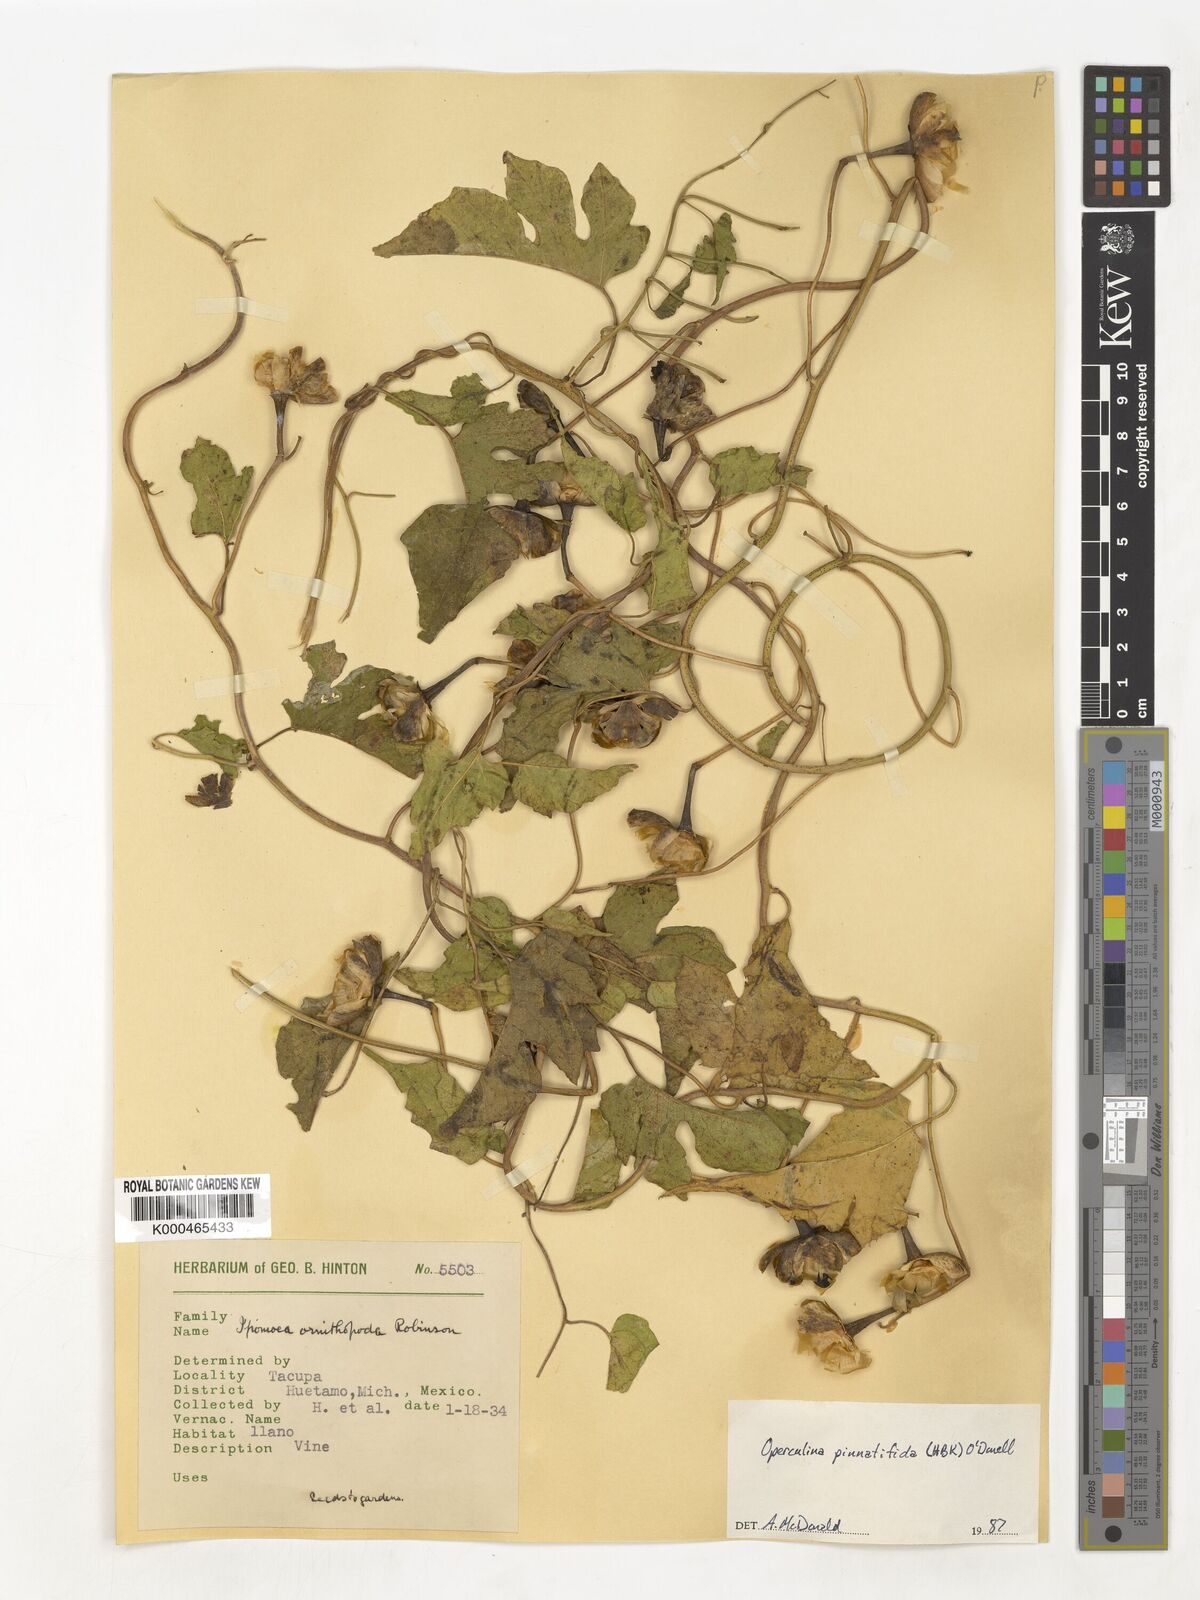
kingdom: Plantae
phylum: Tracheophyta
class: Magnoliopsida
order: Solanales
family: Convolvulaceae
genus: Operculina
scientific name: Operculina
